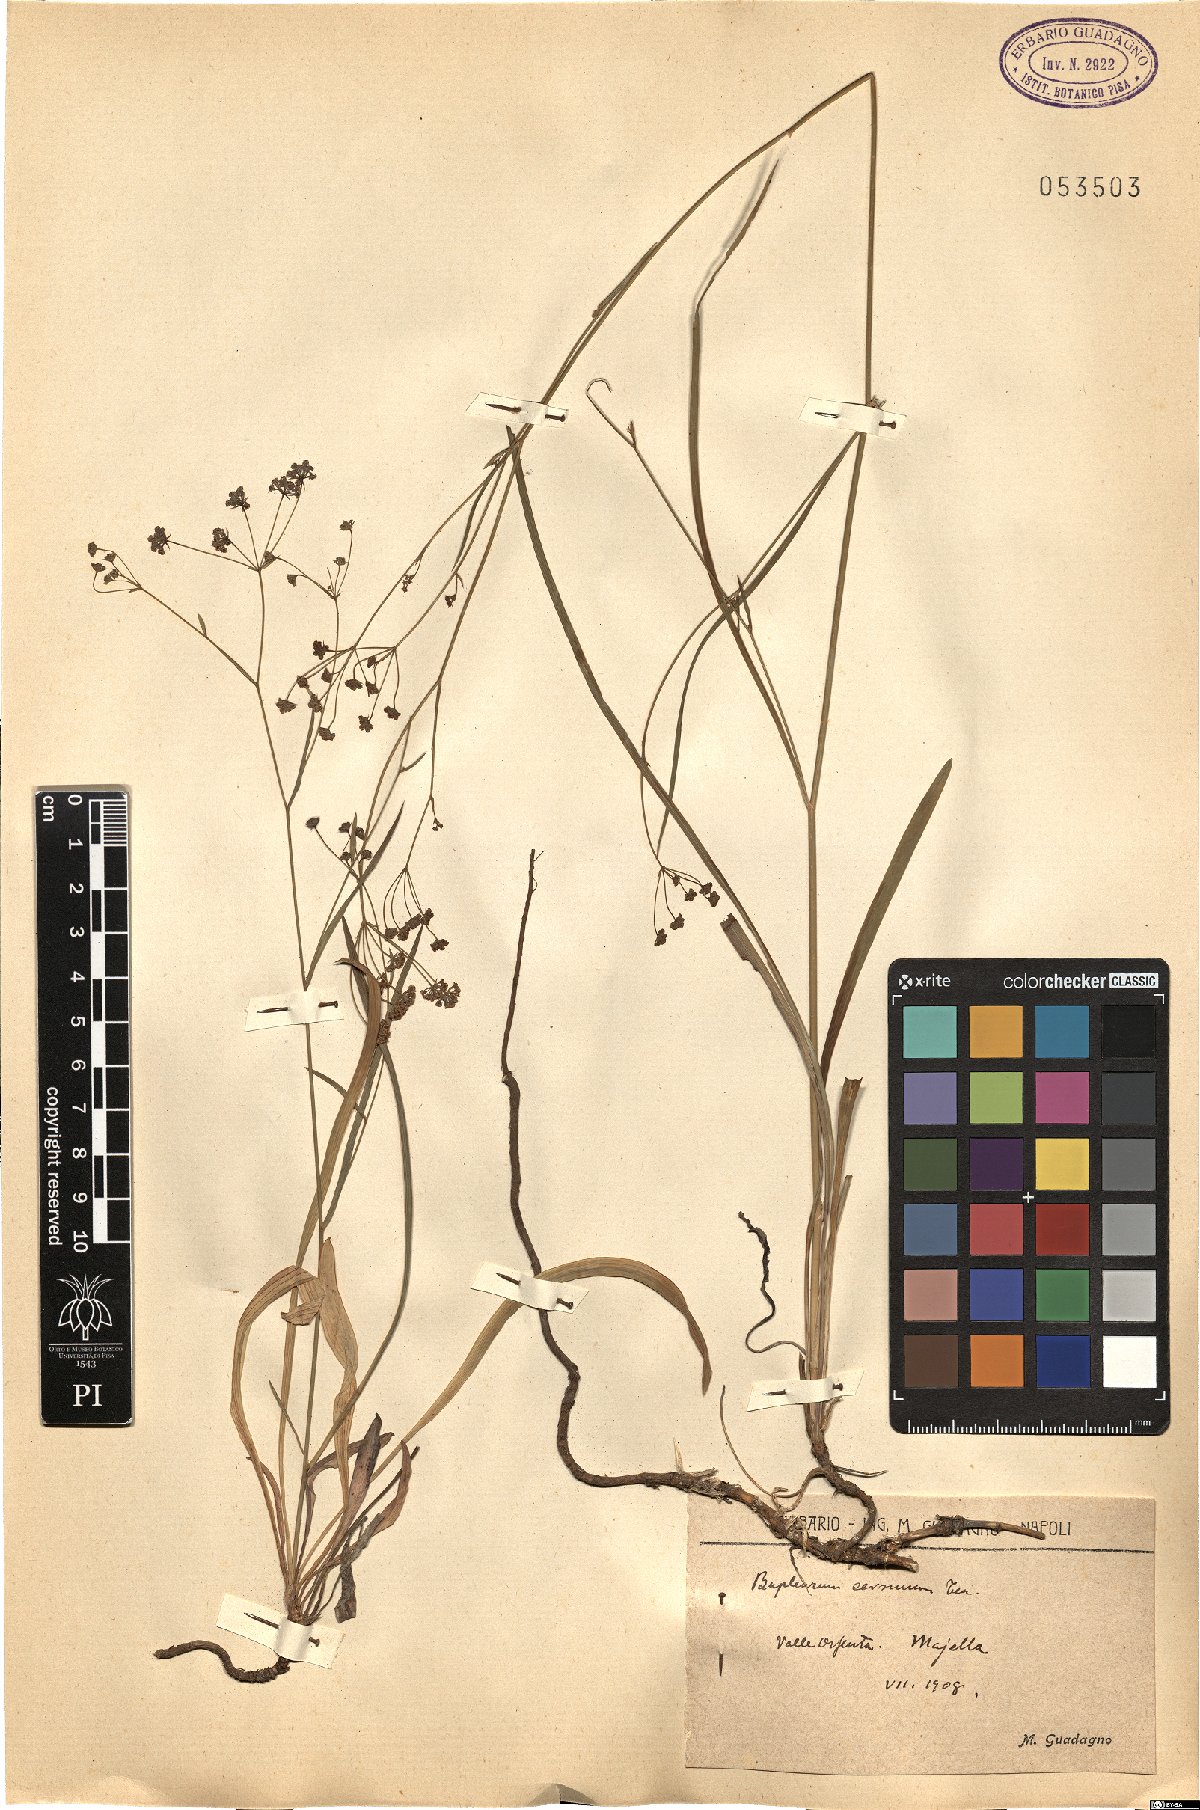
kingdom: Plantae
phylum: Tracheophyta
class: Magnoliopsida
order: Apiales
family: Apiaceae
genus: Bupleurum
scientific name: Bupleurum exaltatum
